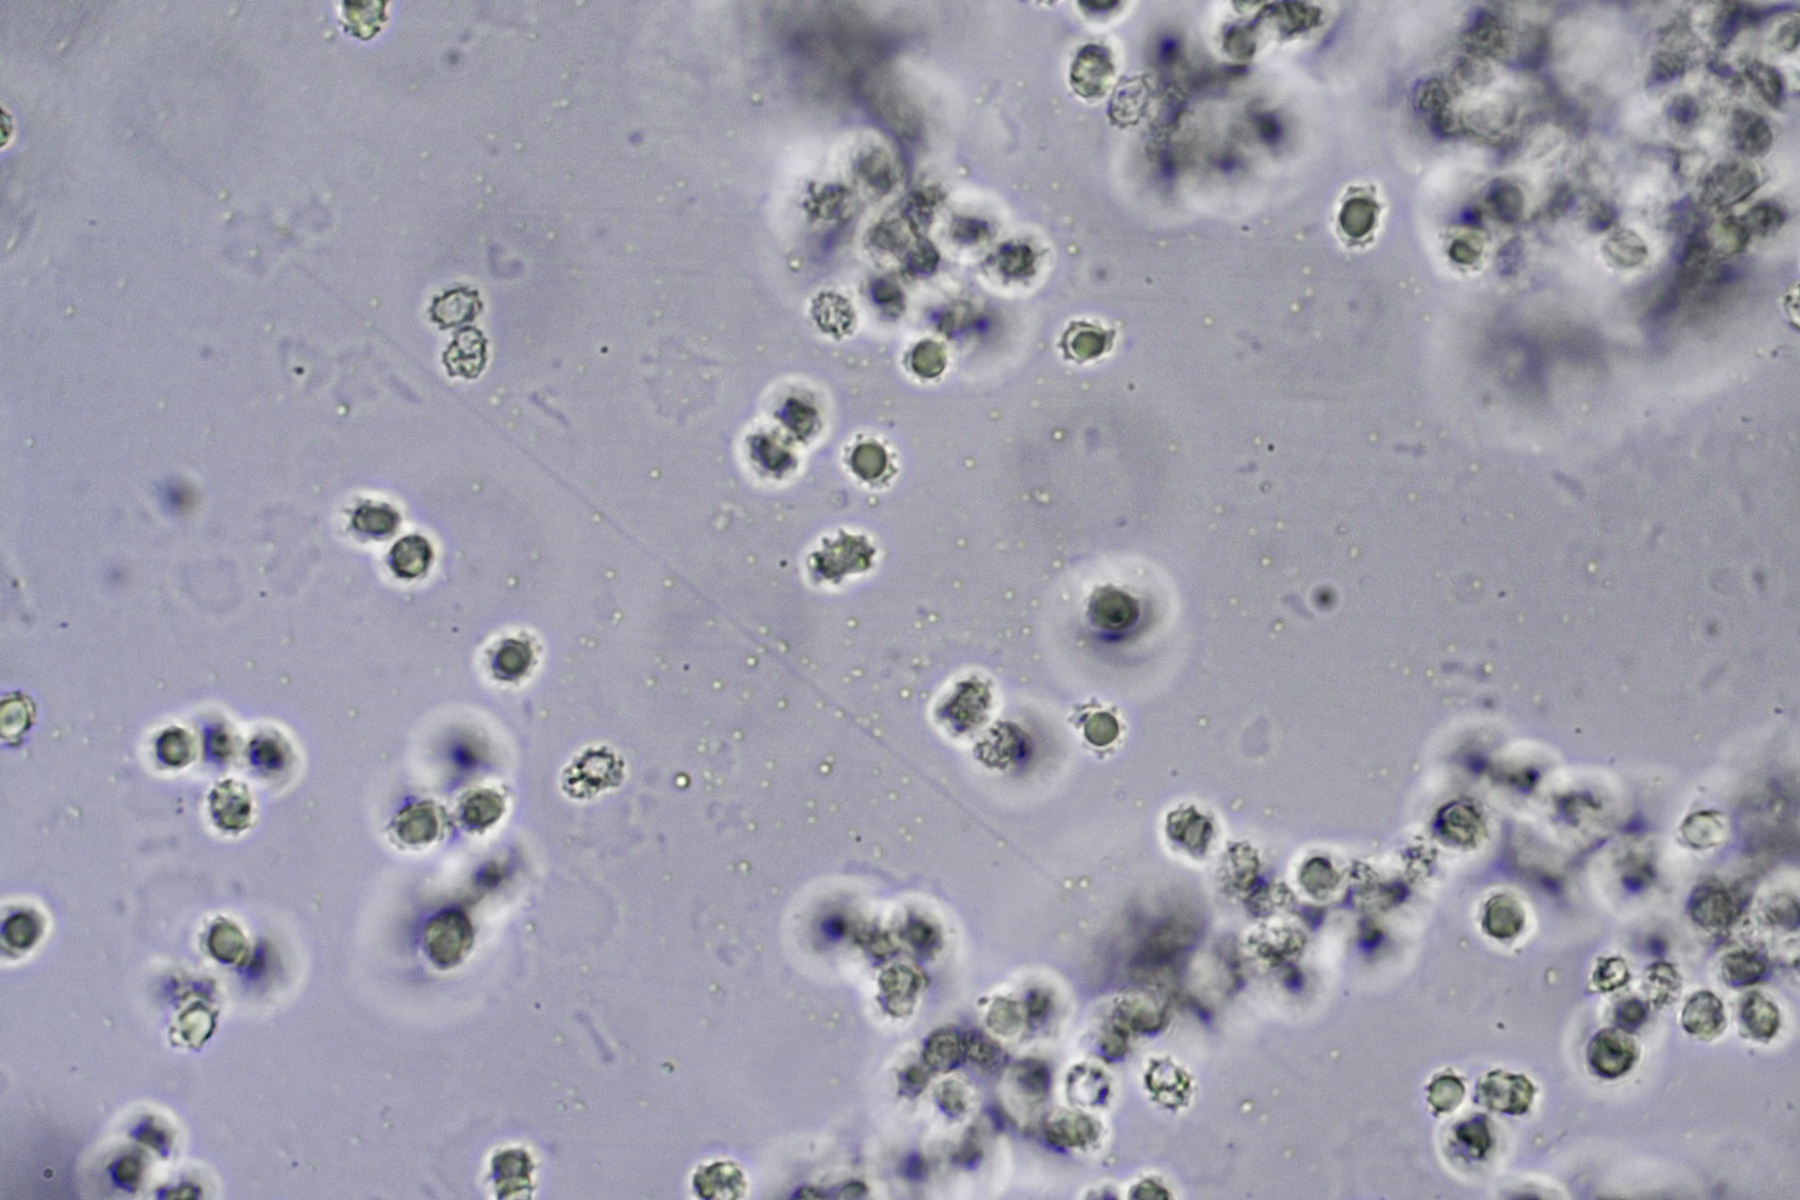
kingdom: Fungi
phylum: Basidiomycota
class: Agaricomycetes
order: Thelephorales
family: Thelephoraceae
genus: Phellodon
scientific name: Phellodon fuligineoalbus
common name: pjusket duftpigsvamp
